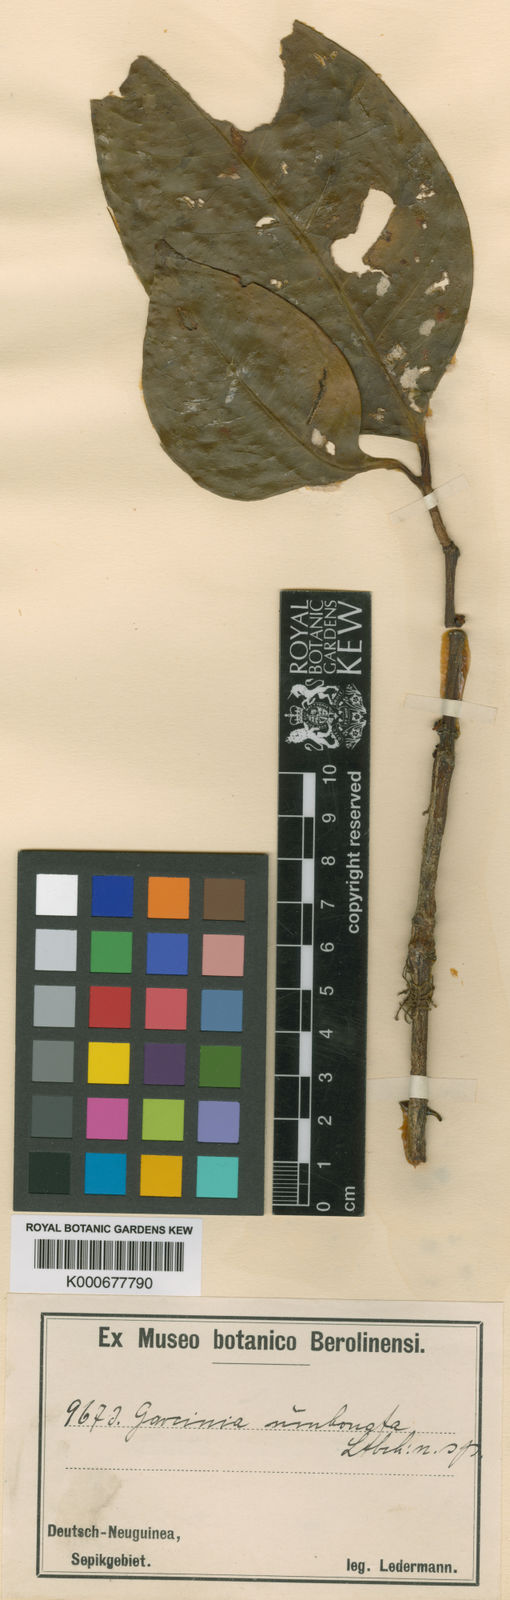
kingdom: Plantae
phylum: Tracheophyta
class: Magnoliopsida
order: Malpighiales
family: Clusiaceae
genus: Garcinia
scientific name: Garcinia umbonata
